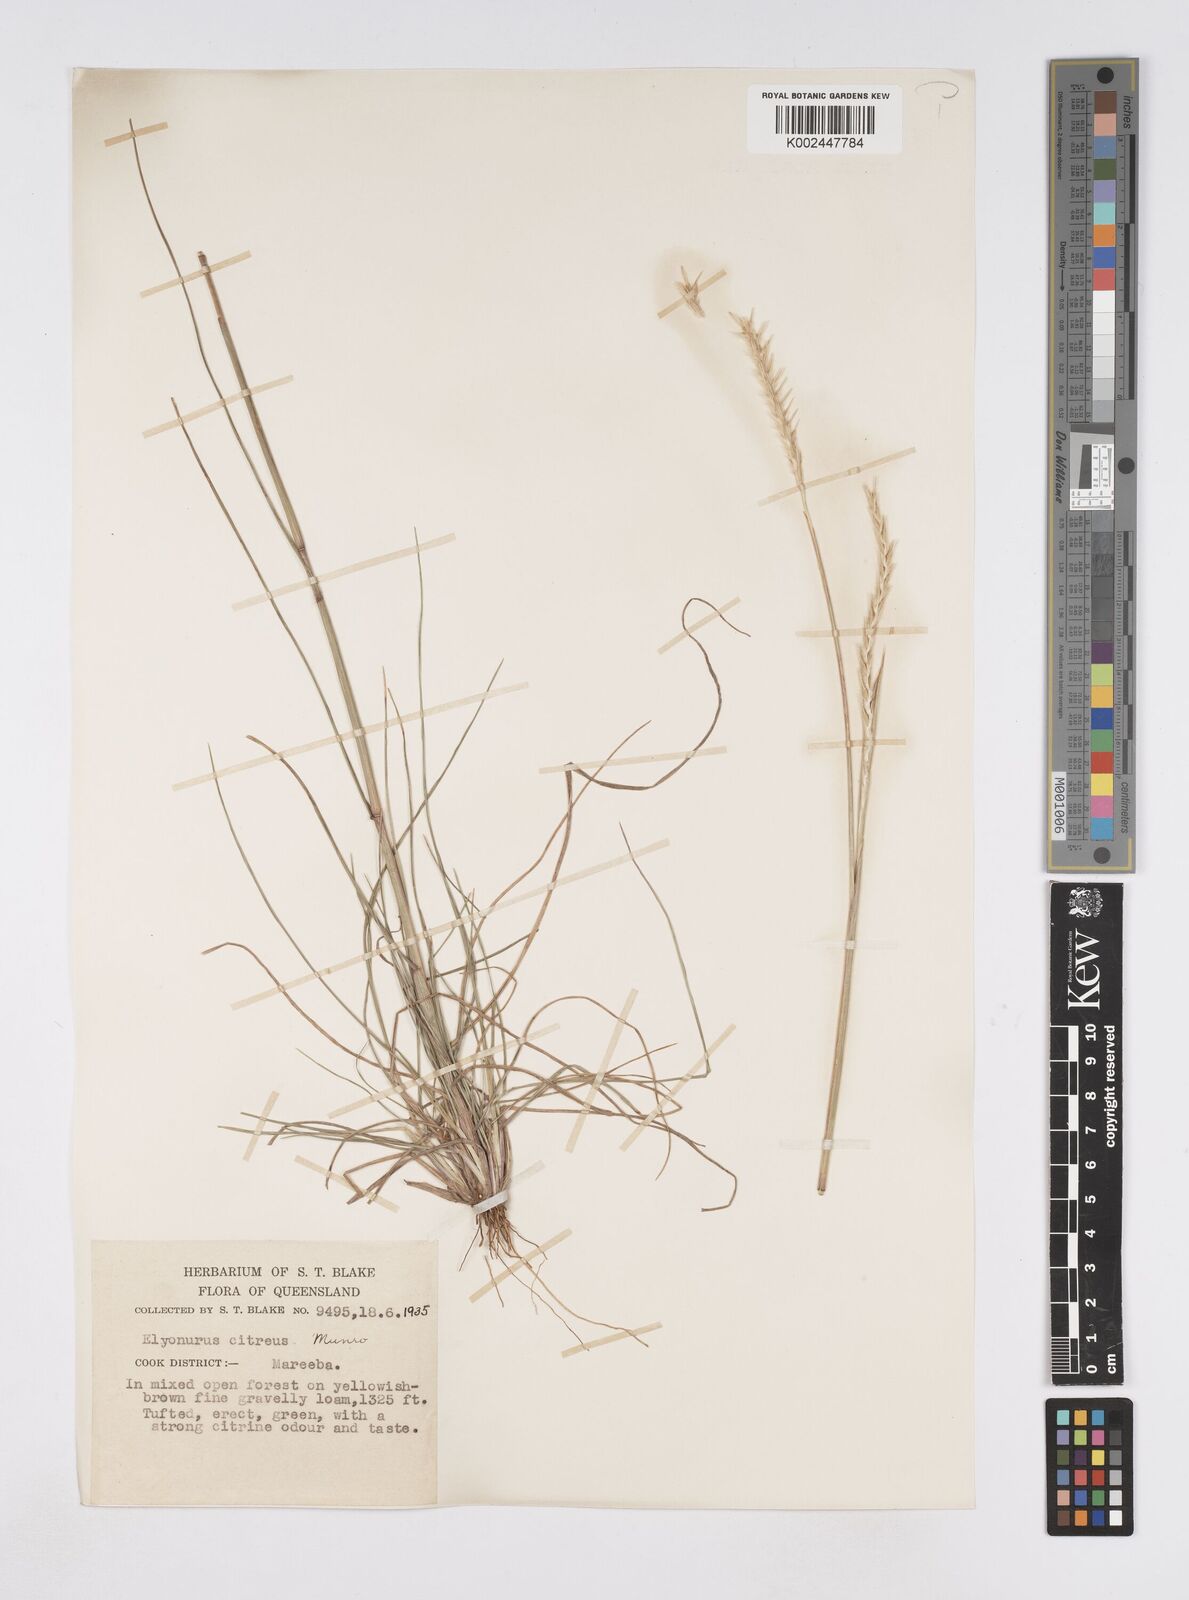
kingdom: Plantae
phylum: Tracheophyta
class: Liliopsida
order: Poales
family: Poaceae
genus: Elionurus
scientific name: Elionurus citreus
